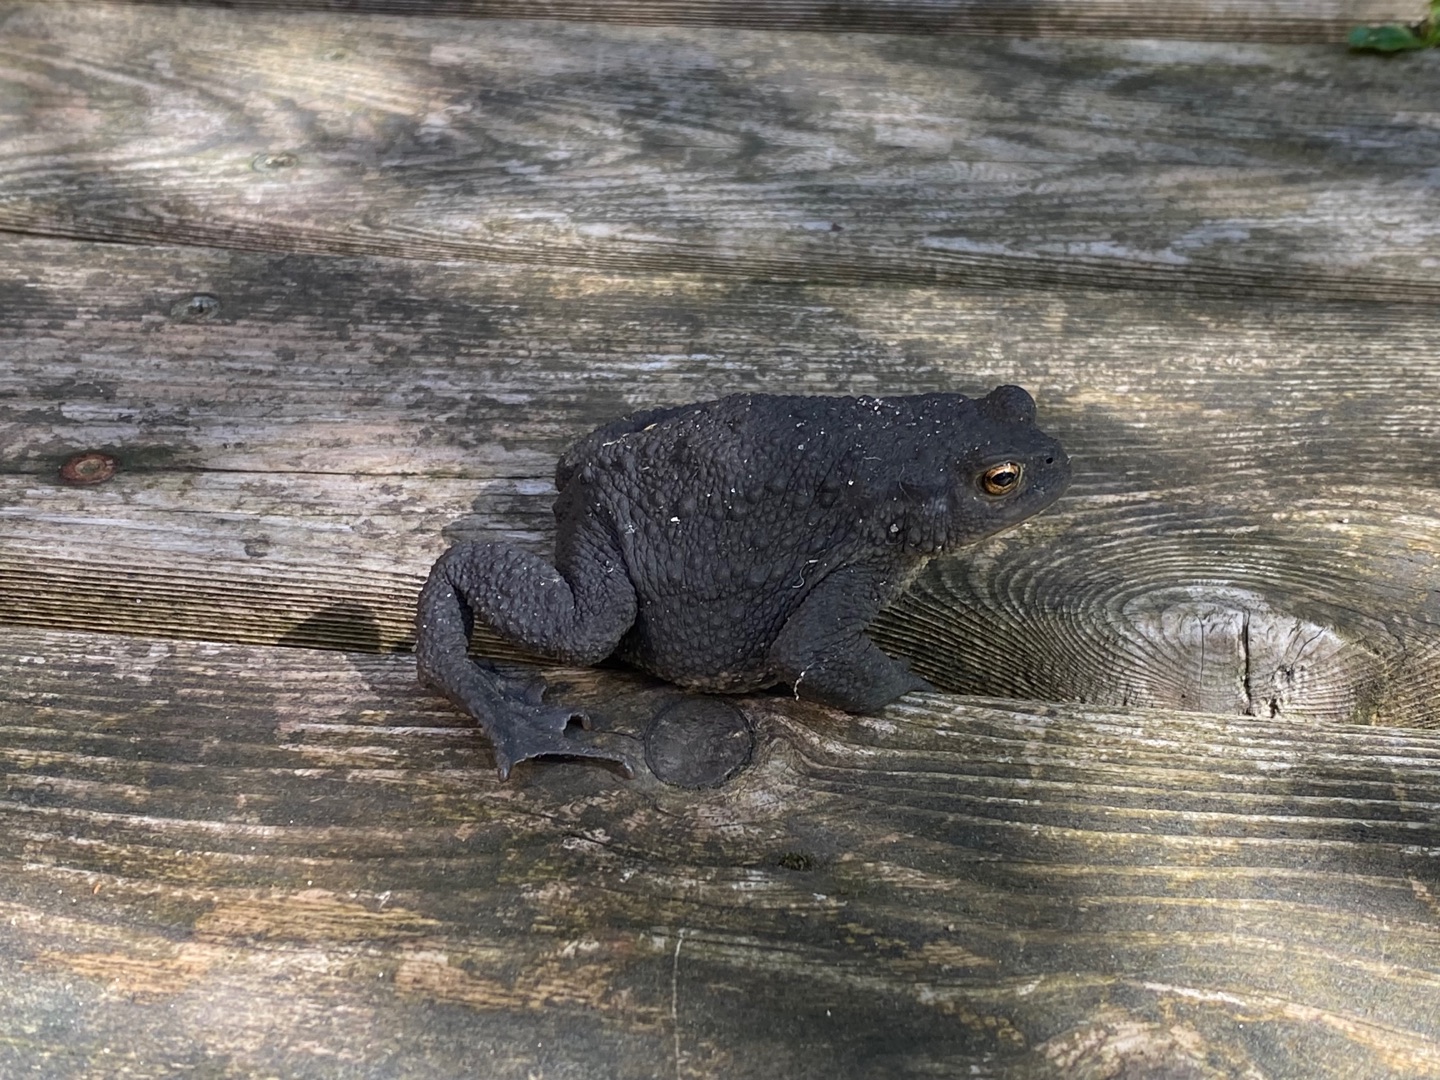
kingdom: Animalia
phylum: Chordata
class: Amphibia
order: Anura
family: Bufonidae
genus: Bufo
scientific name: Bufo bufo
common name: Skrubtudse
